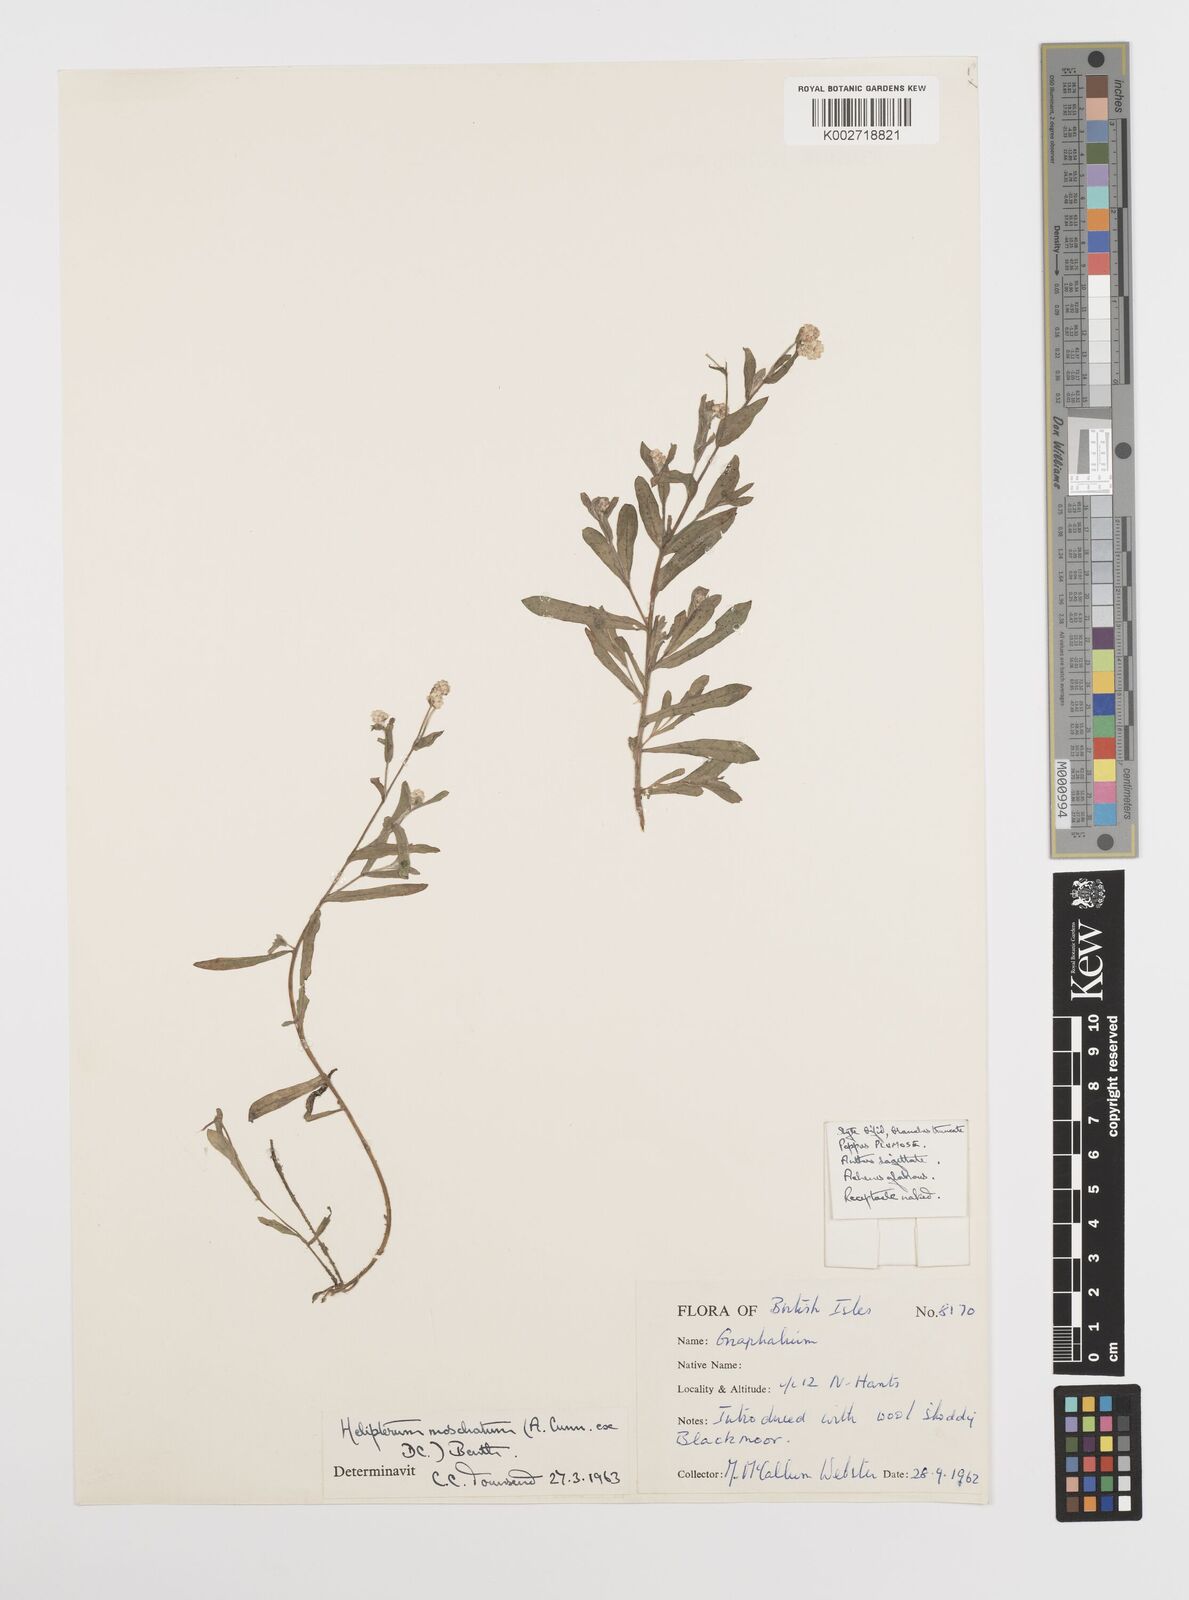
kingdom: Plantae
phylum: Tracheophyta
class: Magnoliopsida
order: Asterales
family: Asteraceae
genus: Rhodanthe
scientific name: Rhodanthe moschata
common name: Musk sunray
